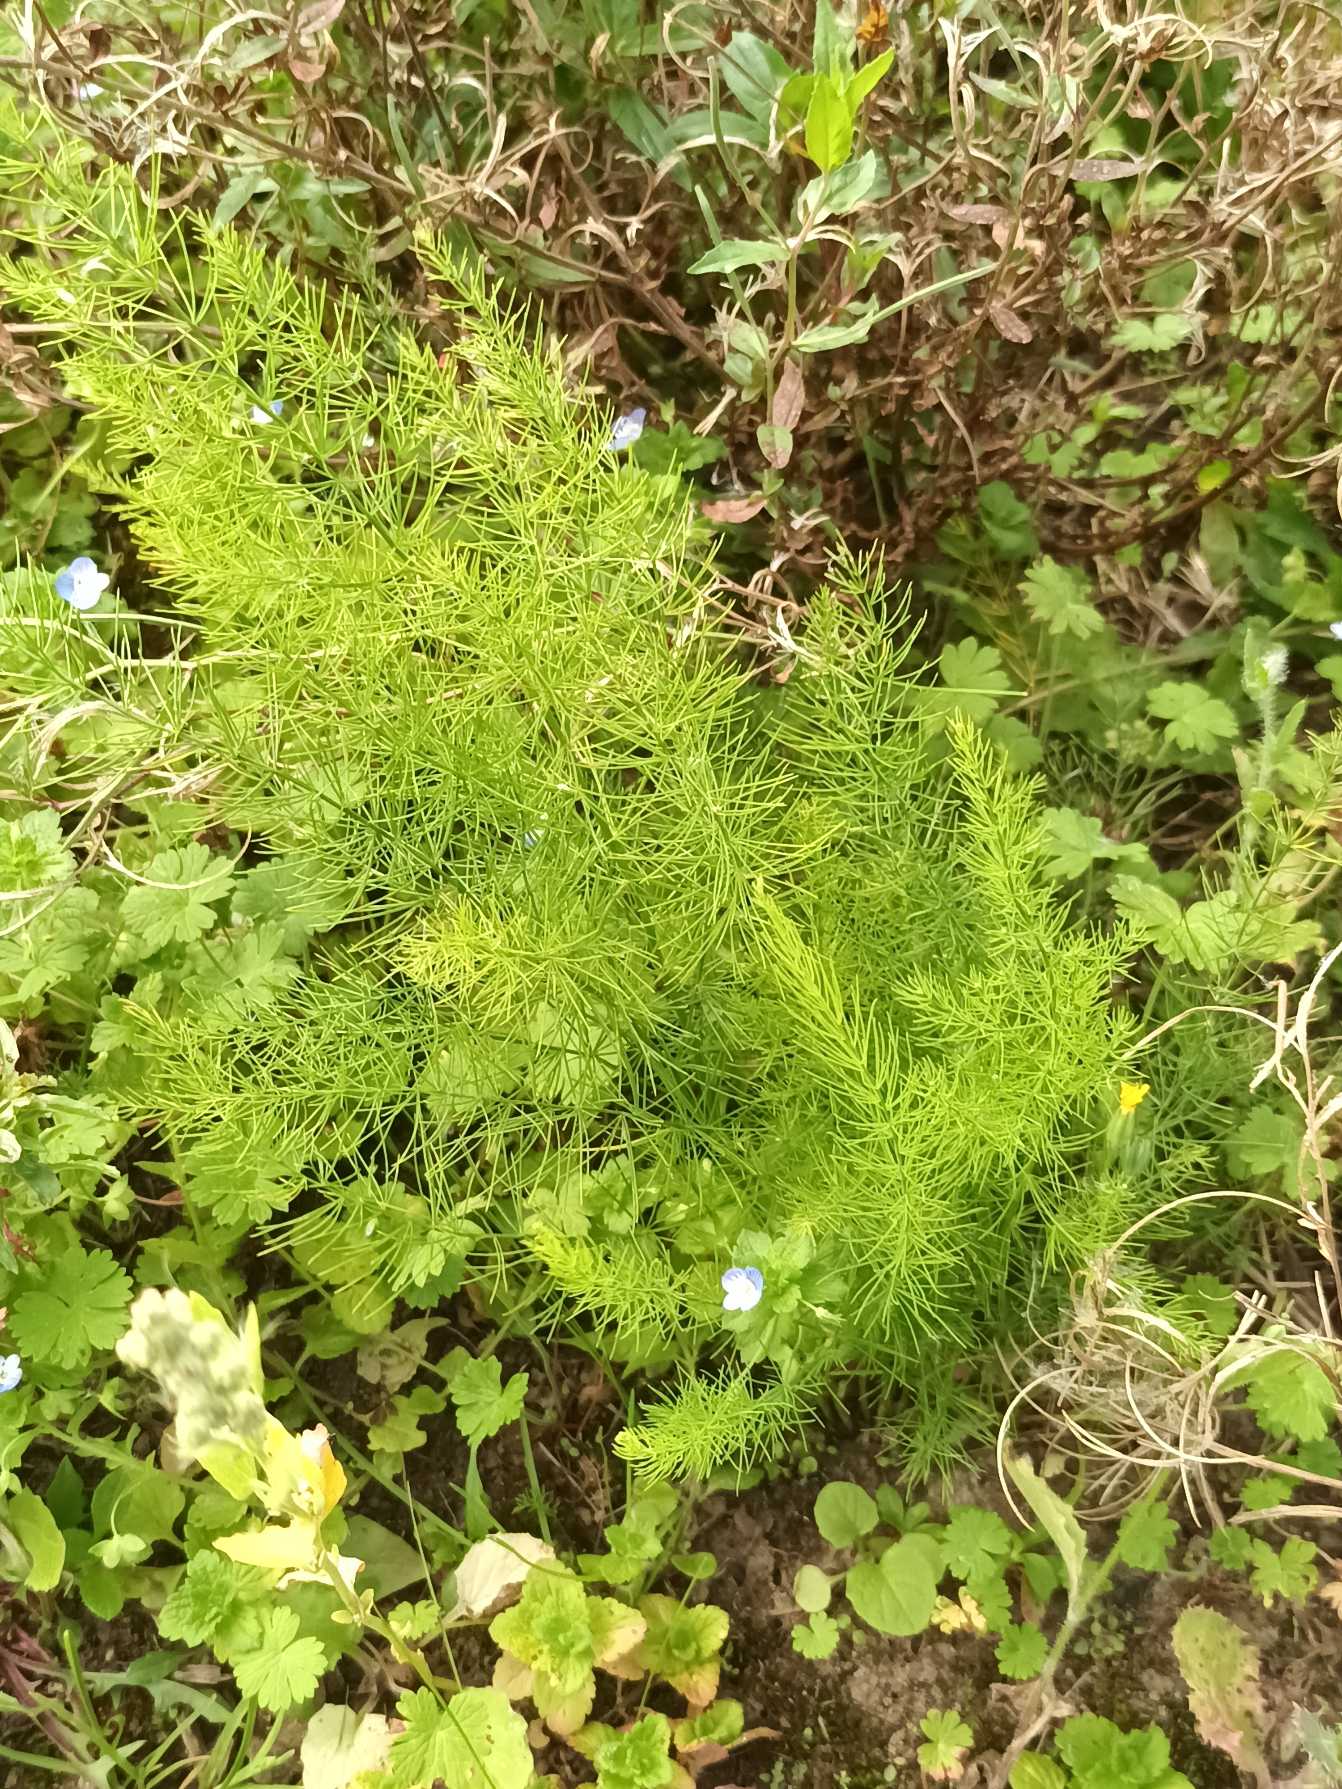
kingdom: Plantae
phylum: Tracheophyta
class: Liliopsida
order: Asparagales
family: Asparagaceae
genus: Asparagus
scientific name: Asparagus officinalis
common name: Asparges
